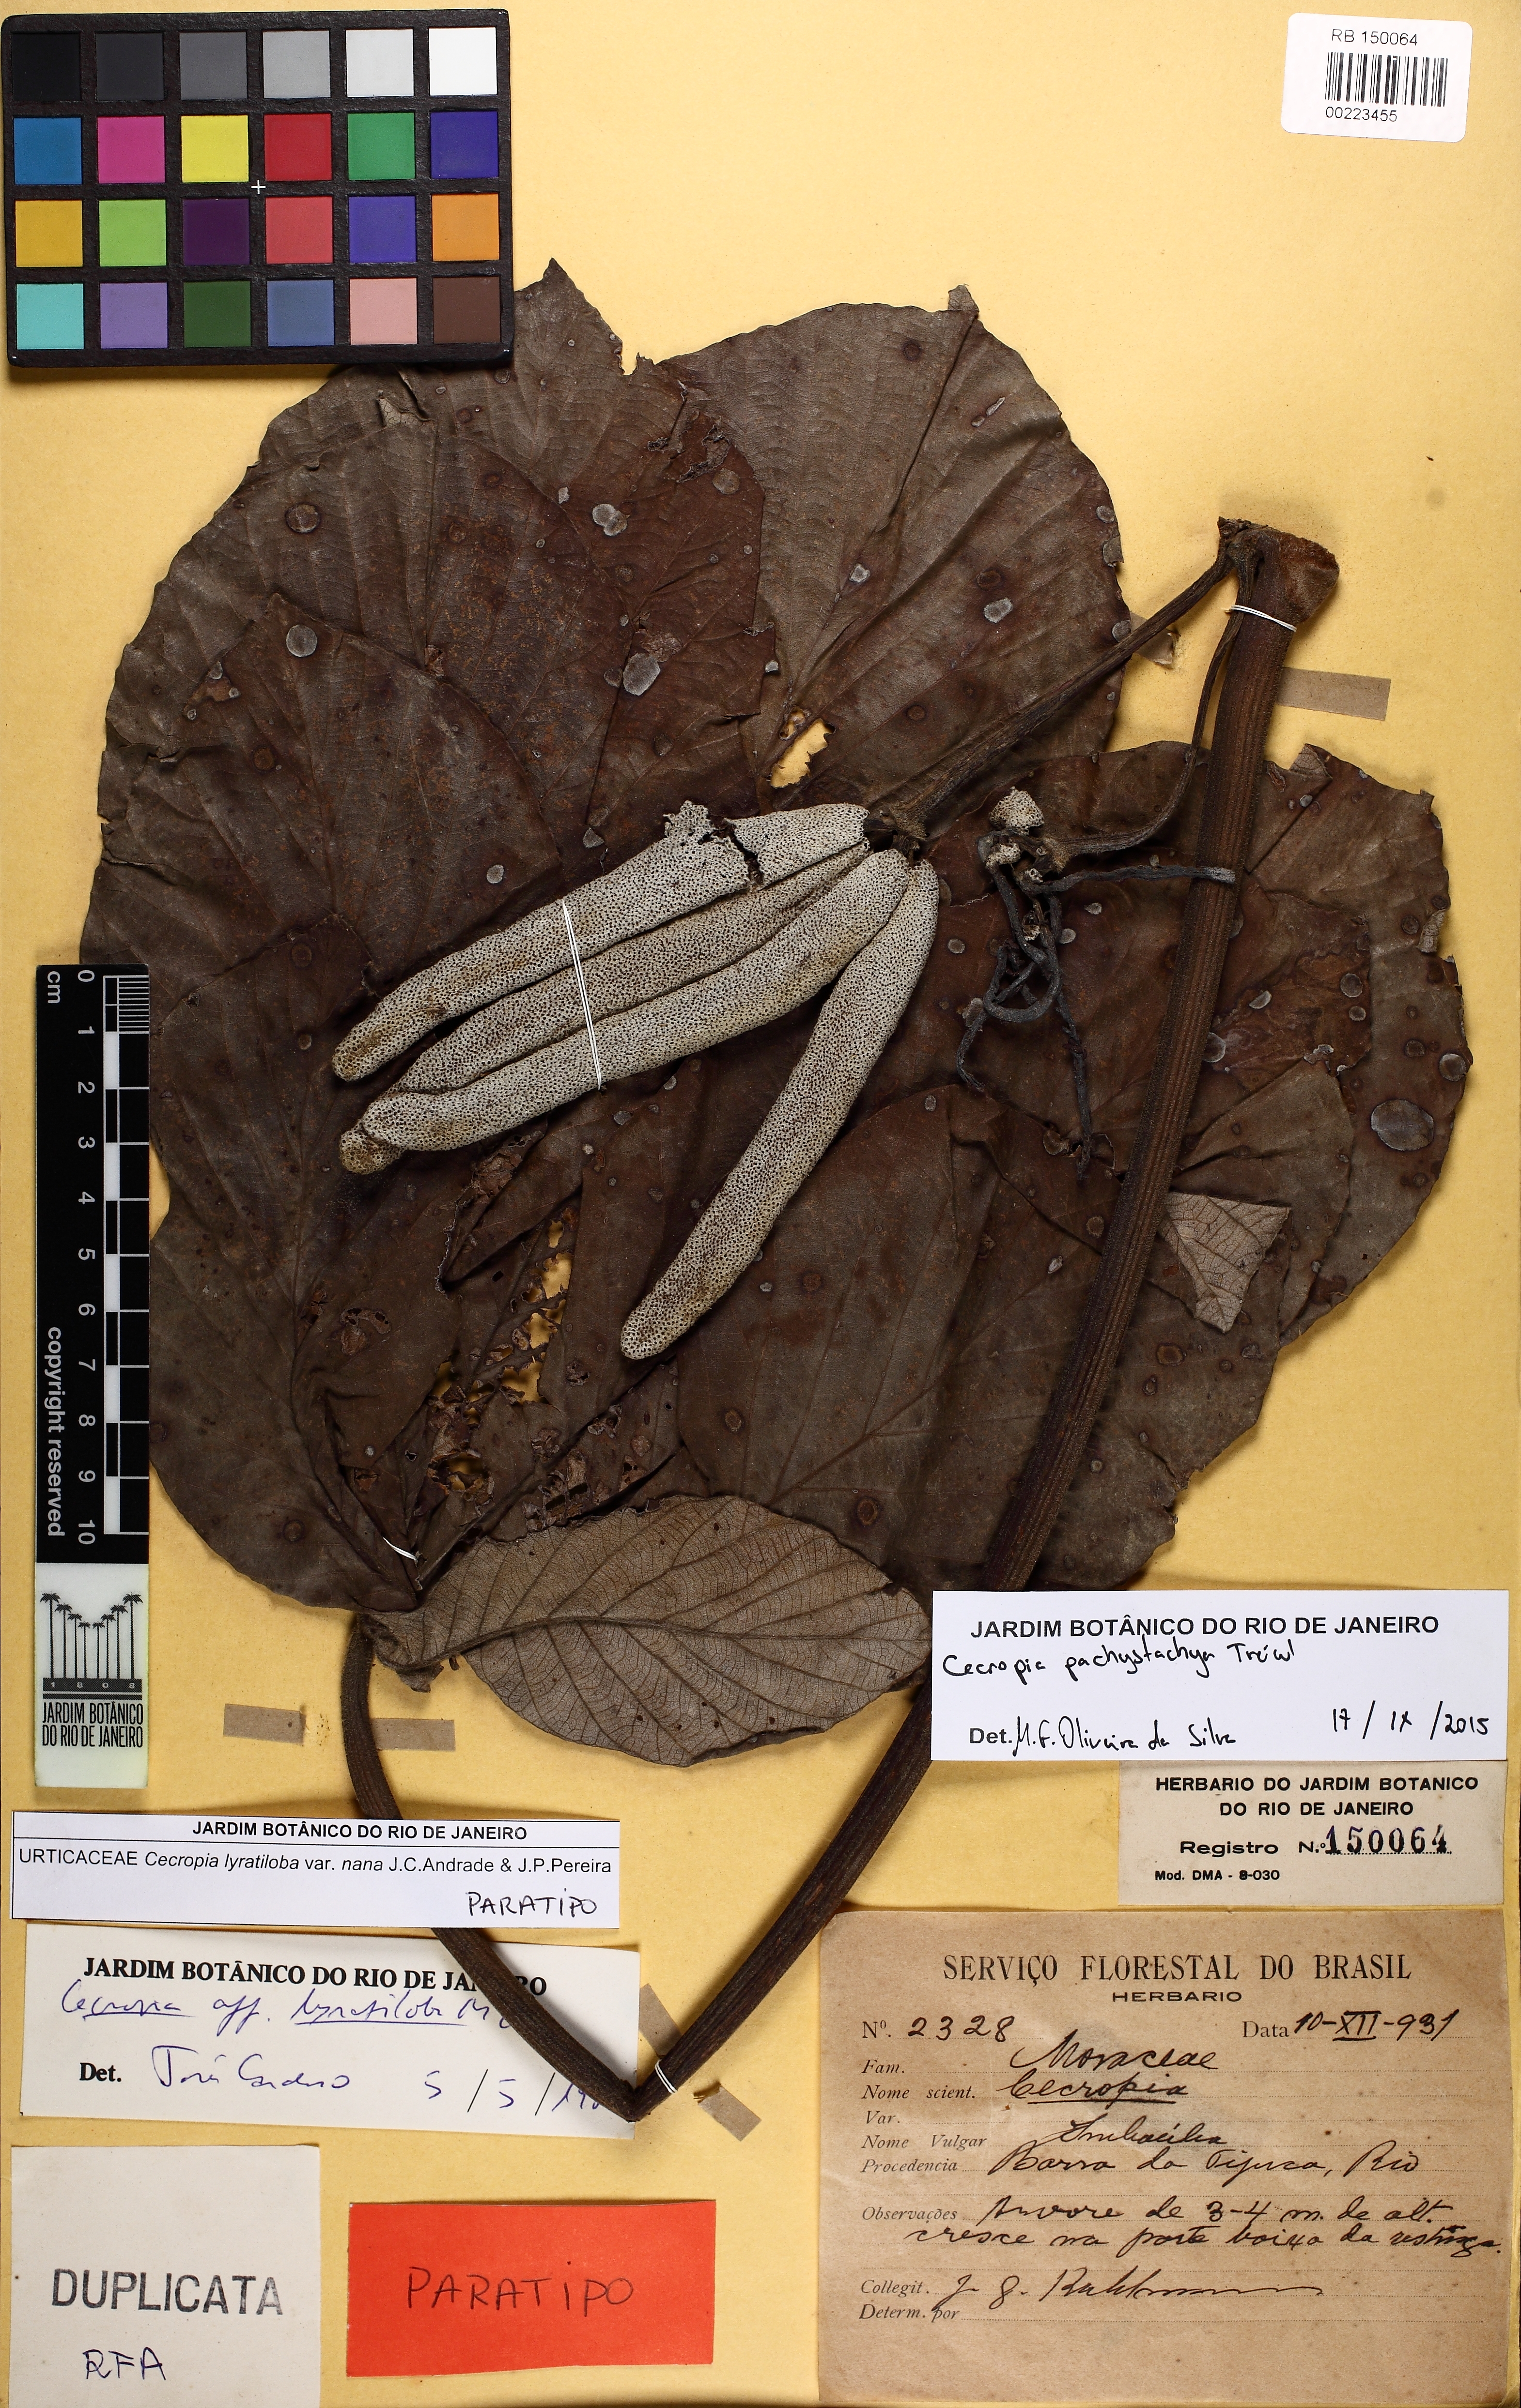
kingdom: Plantae
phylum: Tracheophyta
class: Magnoliopsida
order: Rosales
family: Urticaceae
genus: Cecropia
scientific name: Cecropia pachystachya
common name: Ambay pumpwood
